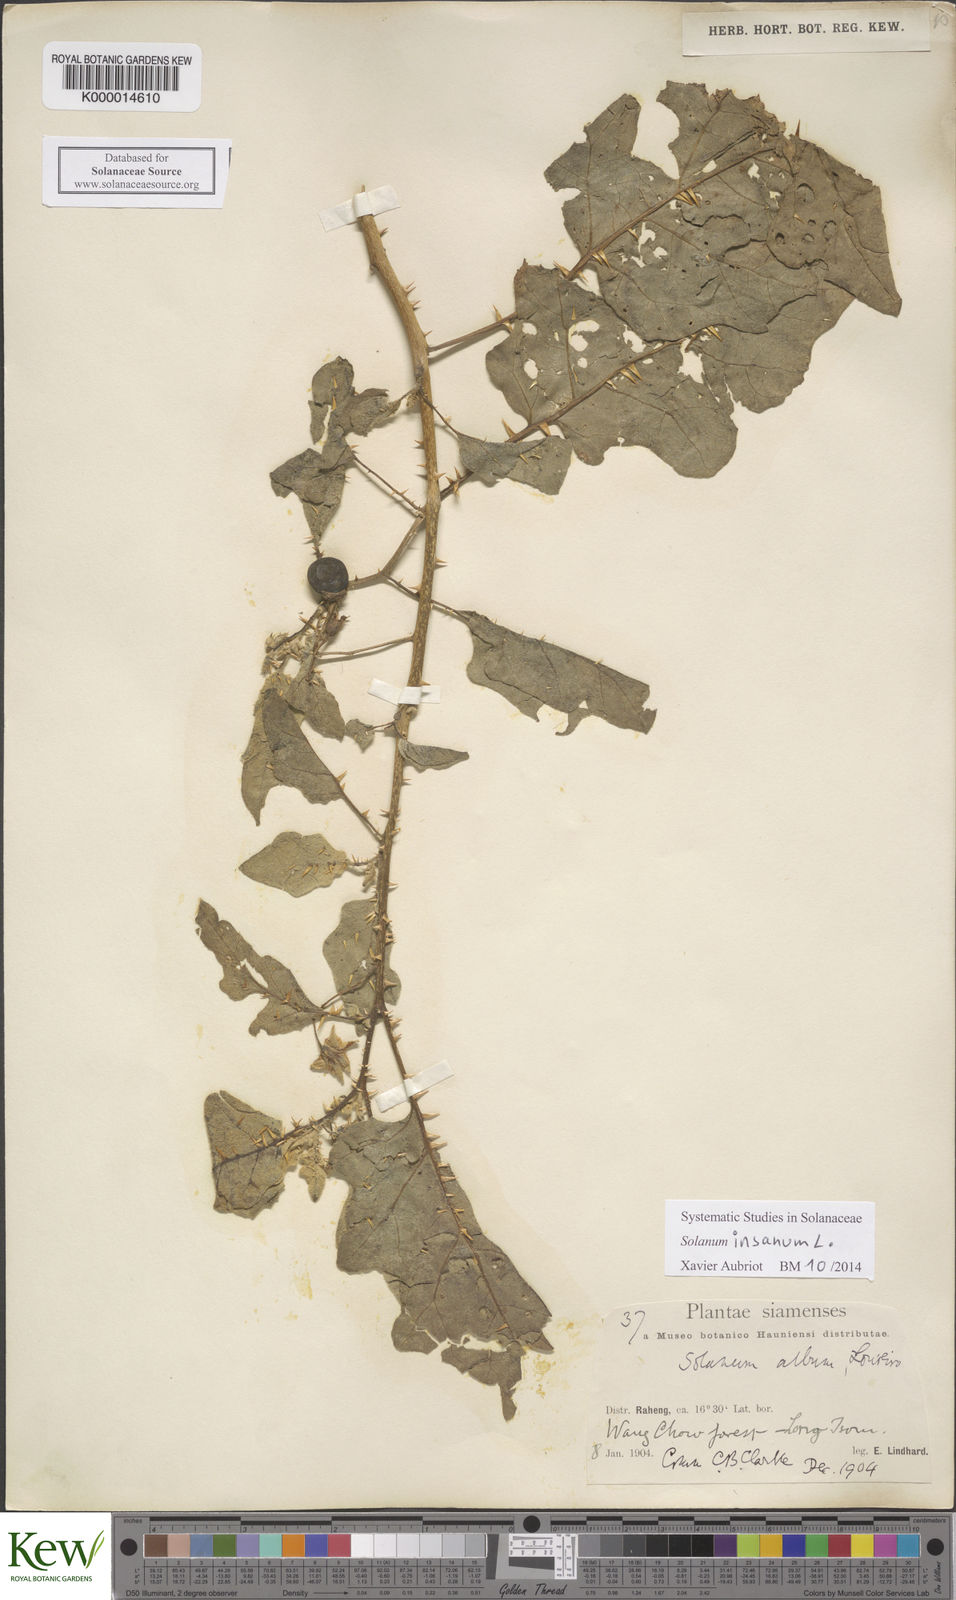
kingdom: Plantae
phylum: Tracheophyta
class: Magnoliopsida
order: Solanales
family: Solanaceae
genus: Solanum
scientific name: Solanum insanum
